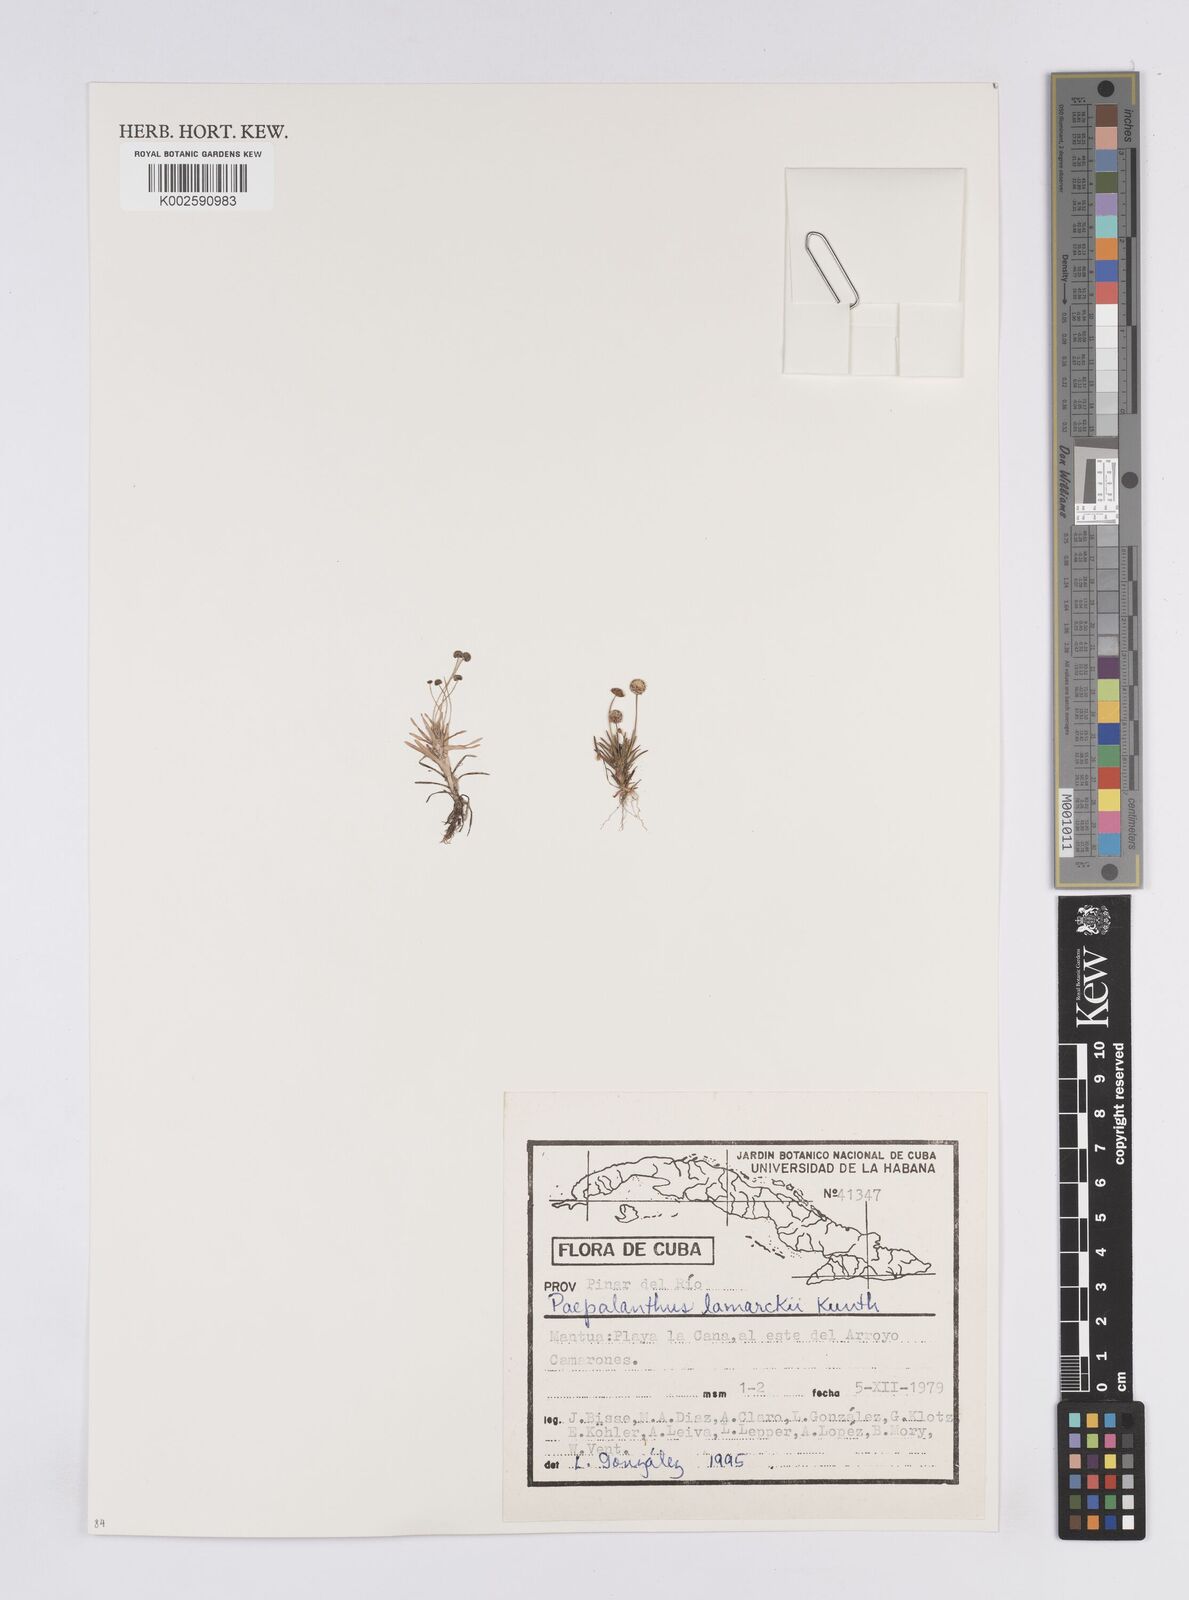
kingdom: Plantae
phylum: Tracheophyta
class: Liliopsida
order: Poales
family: Eriocaulaceae
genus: Paepalanthus
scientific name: Paepalanthus lamarckii
